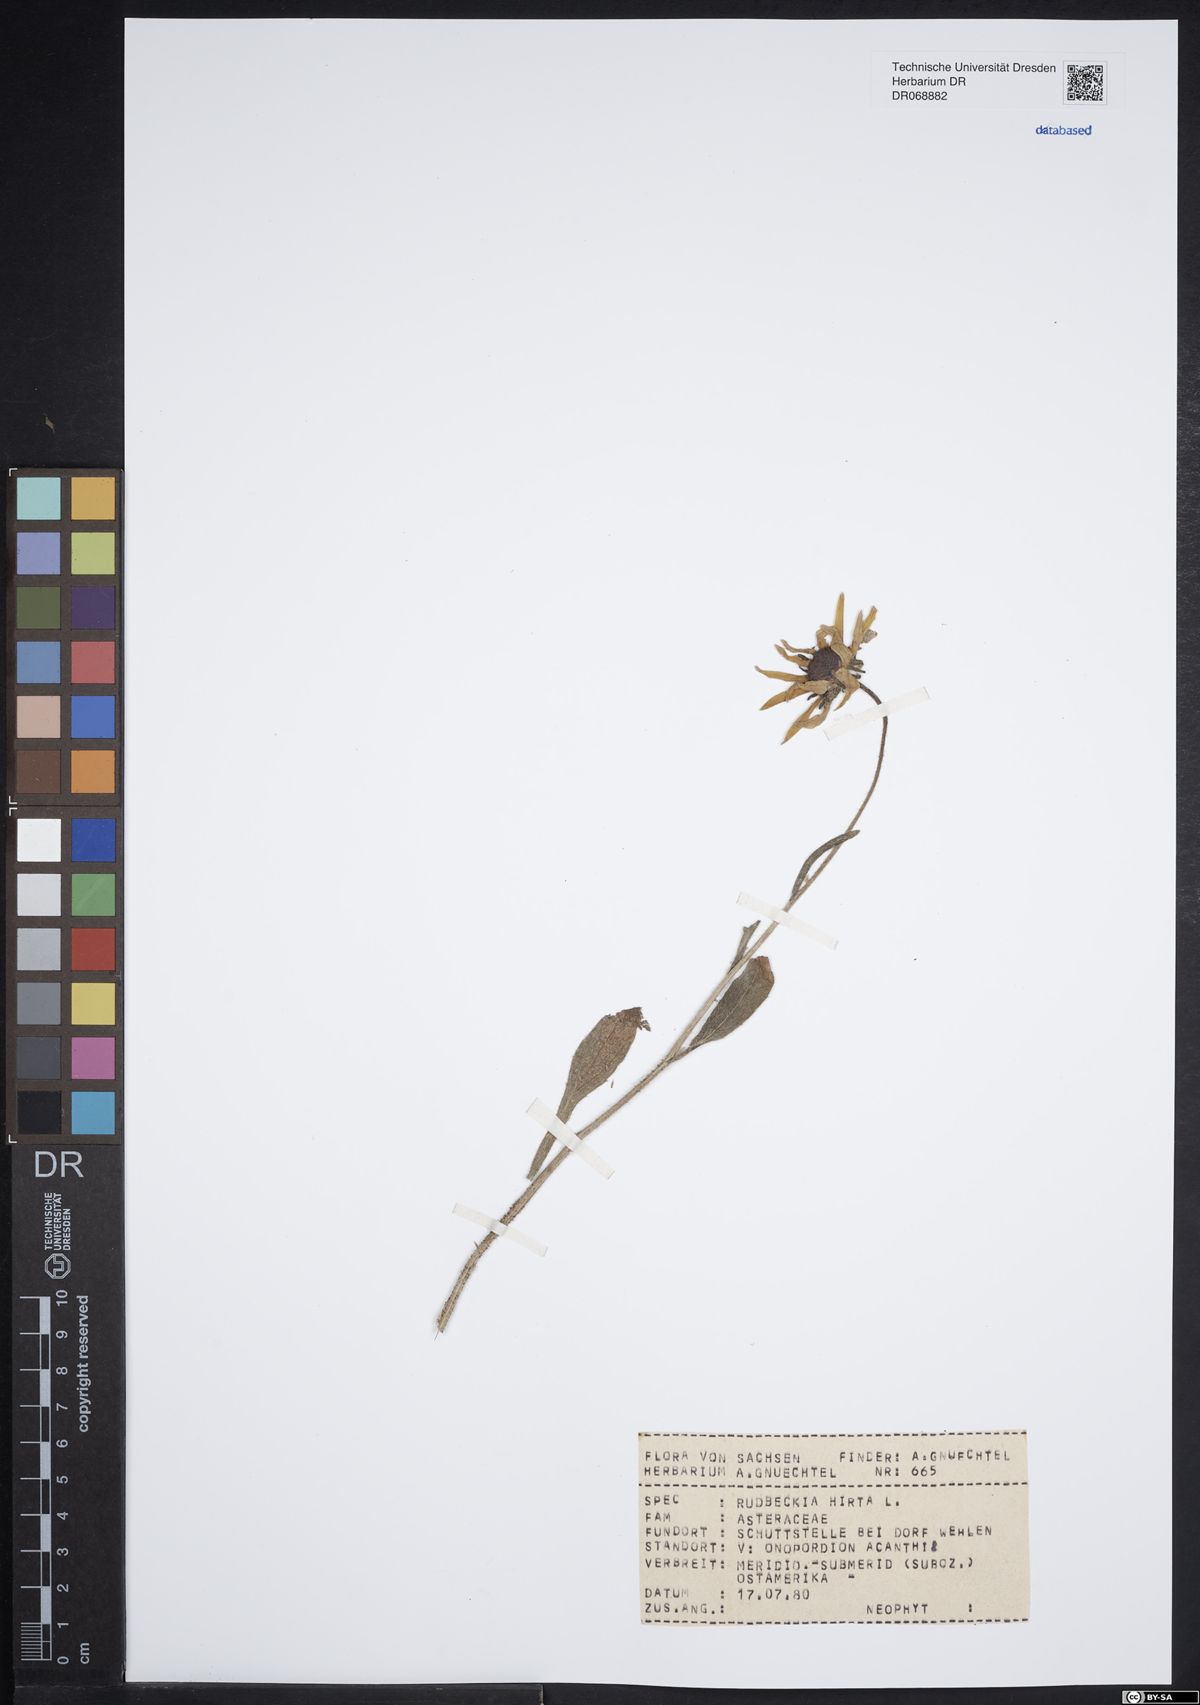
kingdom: Plantae
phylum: Tracheophyta
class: Magnoliopsida
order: Asterales
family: Asteraceae
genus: Rudbeckia
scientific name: Rudbeckia hirta
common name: Black-eyed-susan
